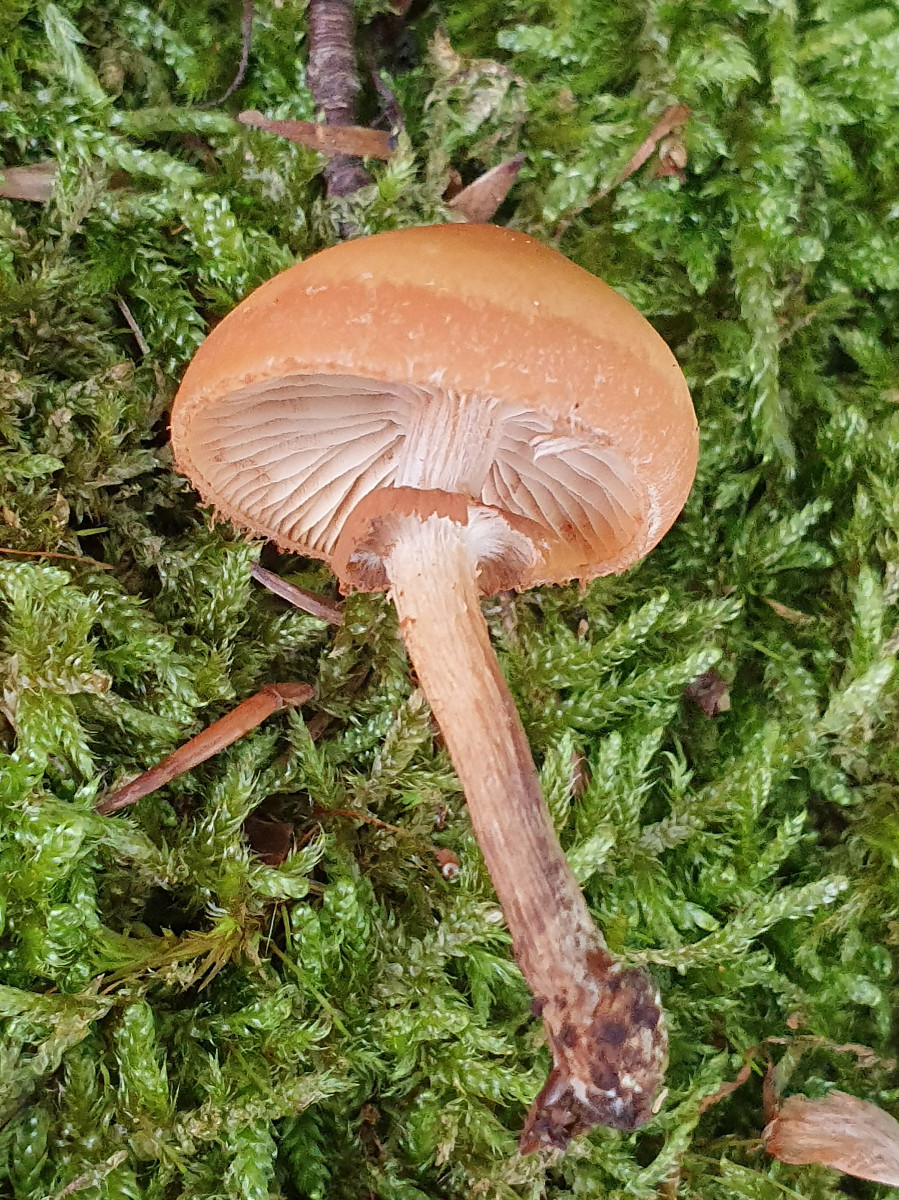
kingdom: Fungi
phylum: Basidiomycota
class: Agaricomycetes
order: Agaricales
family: Strophariaceae
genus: Kuehneromyces
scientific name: Kuehneromyces mutabilis
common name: foranderlig skælhat
